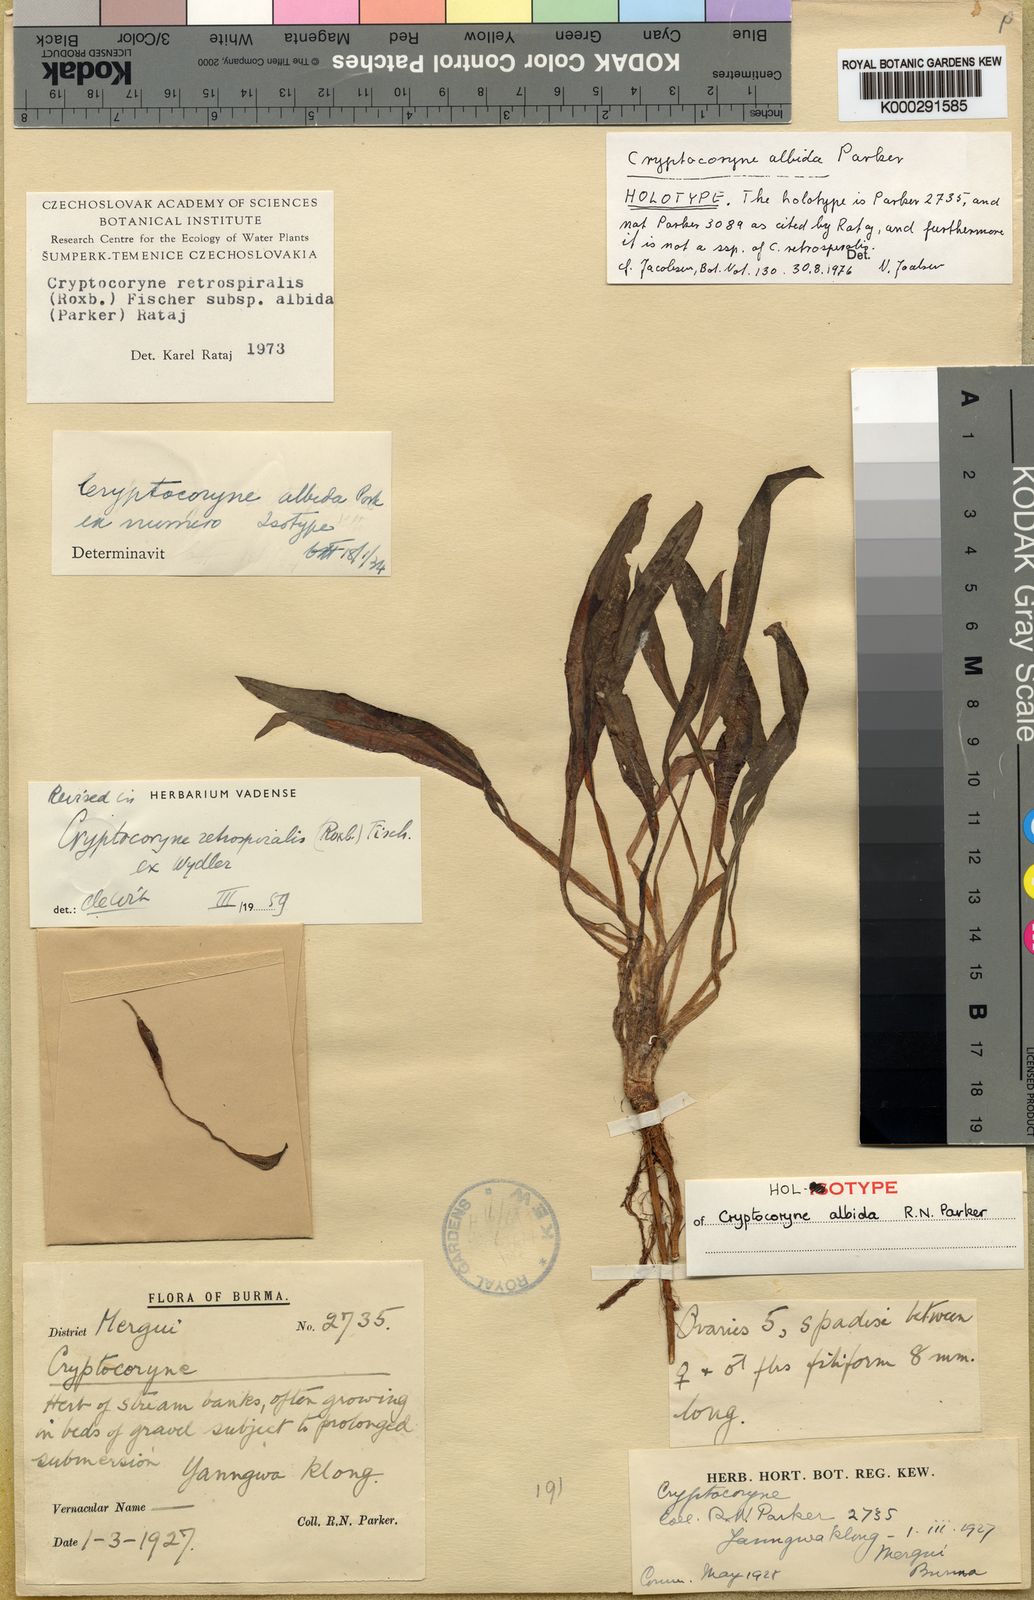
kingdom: Plantae
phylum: Tracheophyta
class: Liliopsida
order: Alismatales
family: Araceae
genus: Cryptocoryne
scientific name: Cryptocoryne albida
